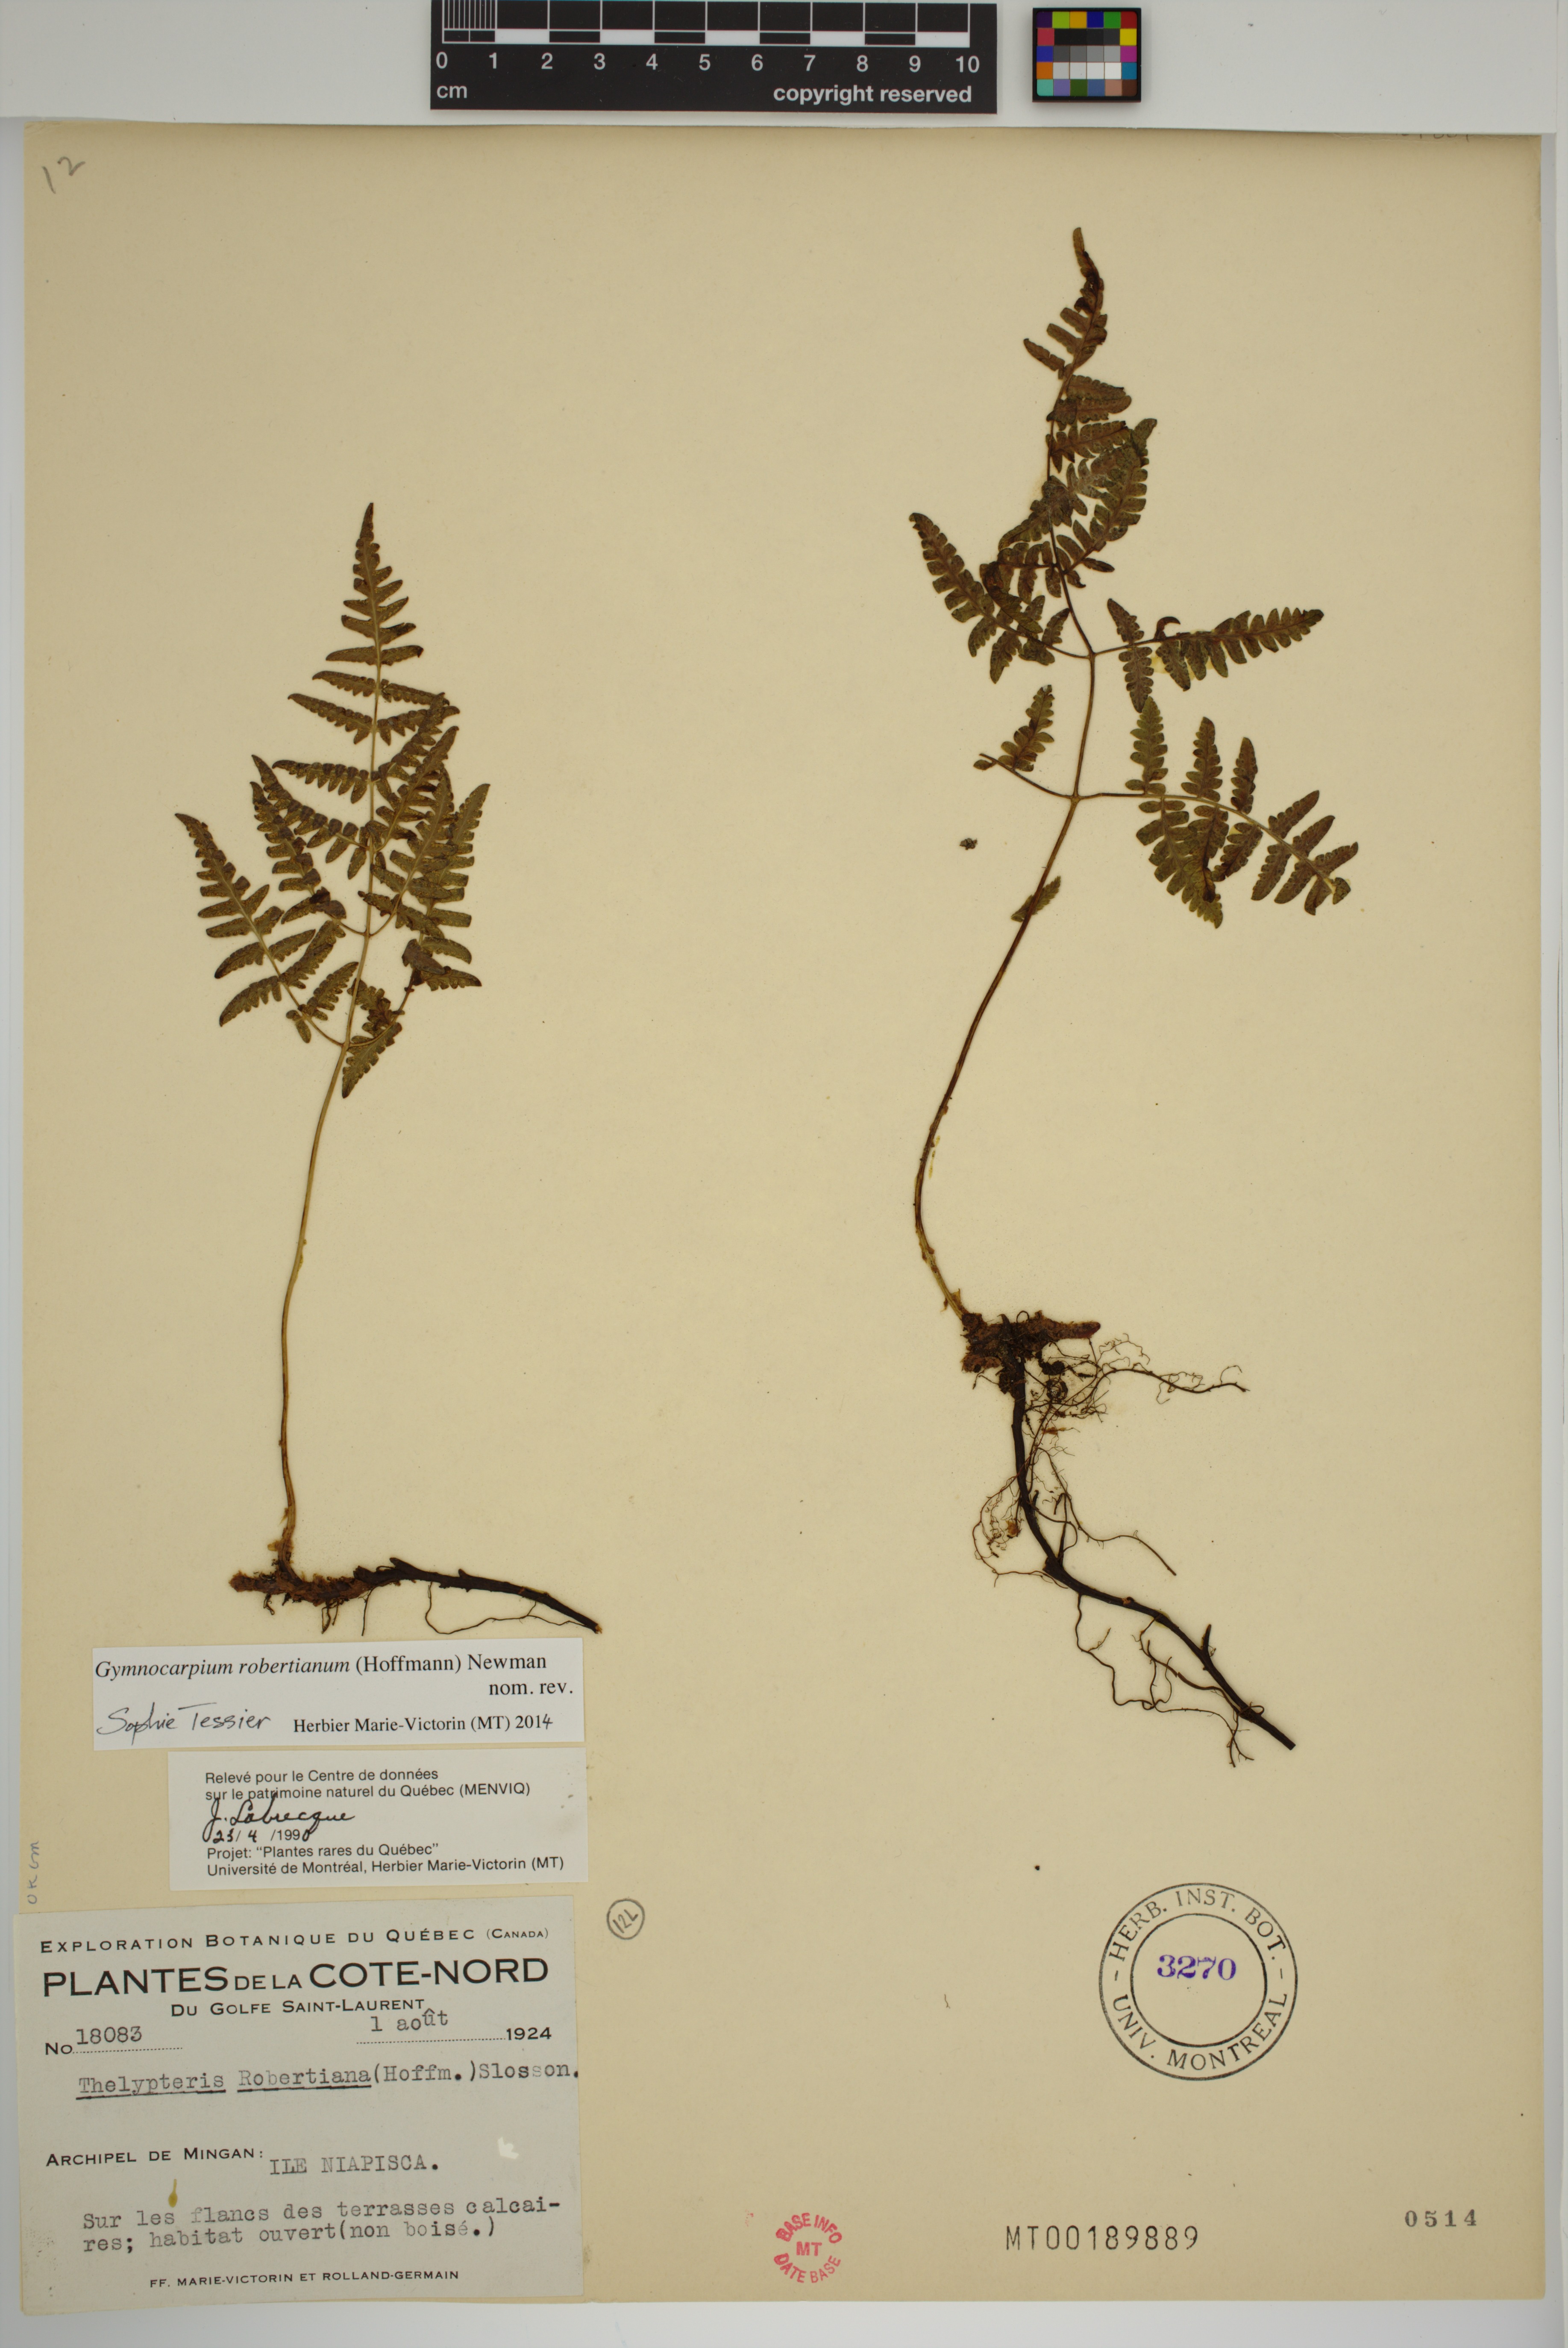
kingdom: Plantae
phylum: Tracheophyta
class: Polypodiopsida
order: Polypodiales
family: Cystopteridaceae
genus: Gymnocarpium
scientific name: Gymnocarpium robertianum
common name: Limestone fern
